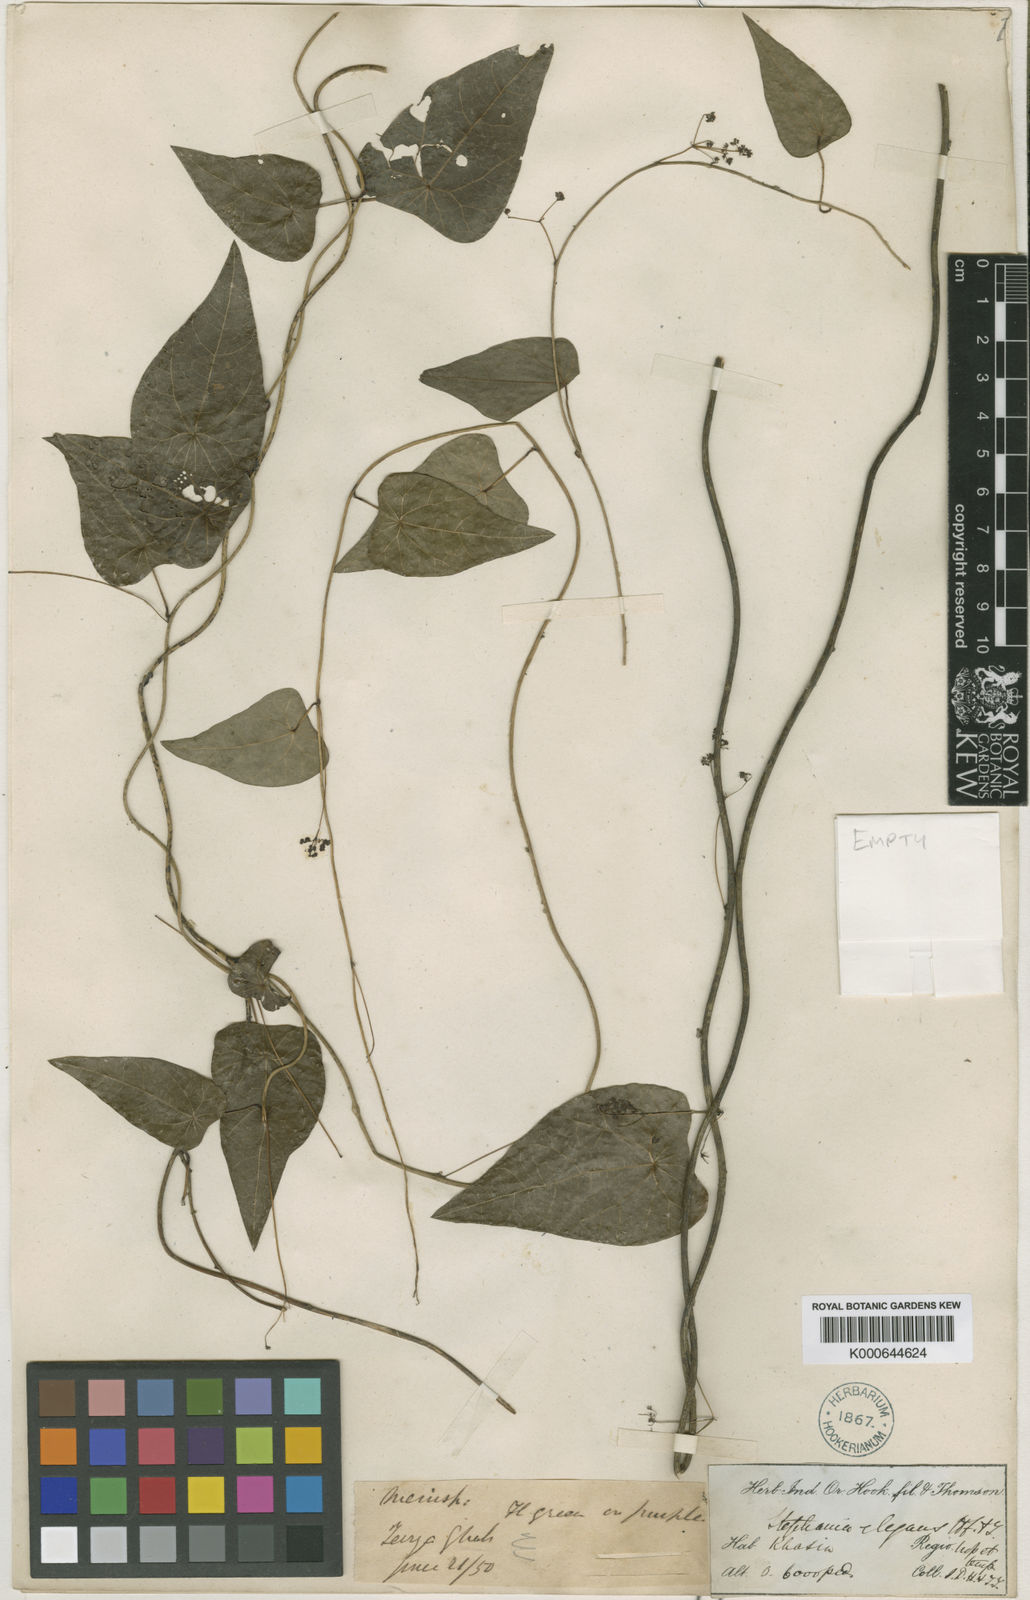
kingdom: Plantae
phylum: Tracheophyta
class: Magnoliopsida
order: Ranunculales
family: Menispermaceae
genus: Stephania
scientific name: Stephania elegans
